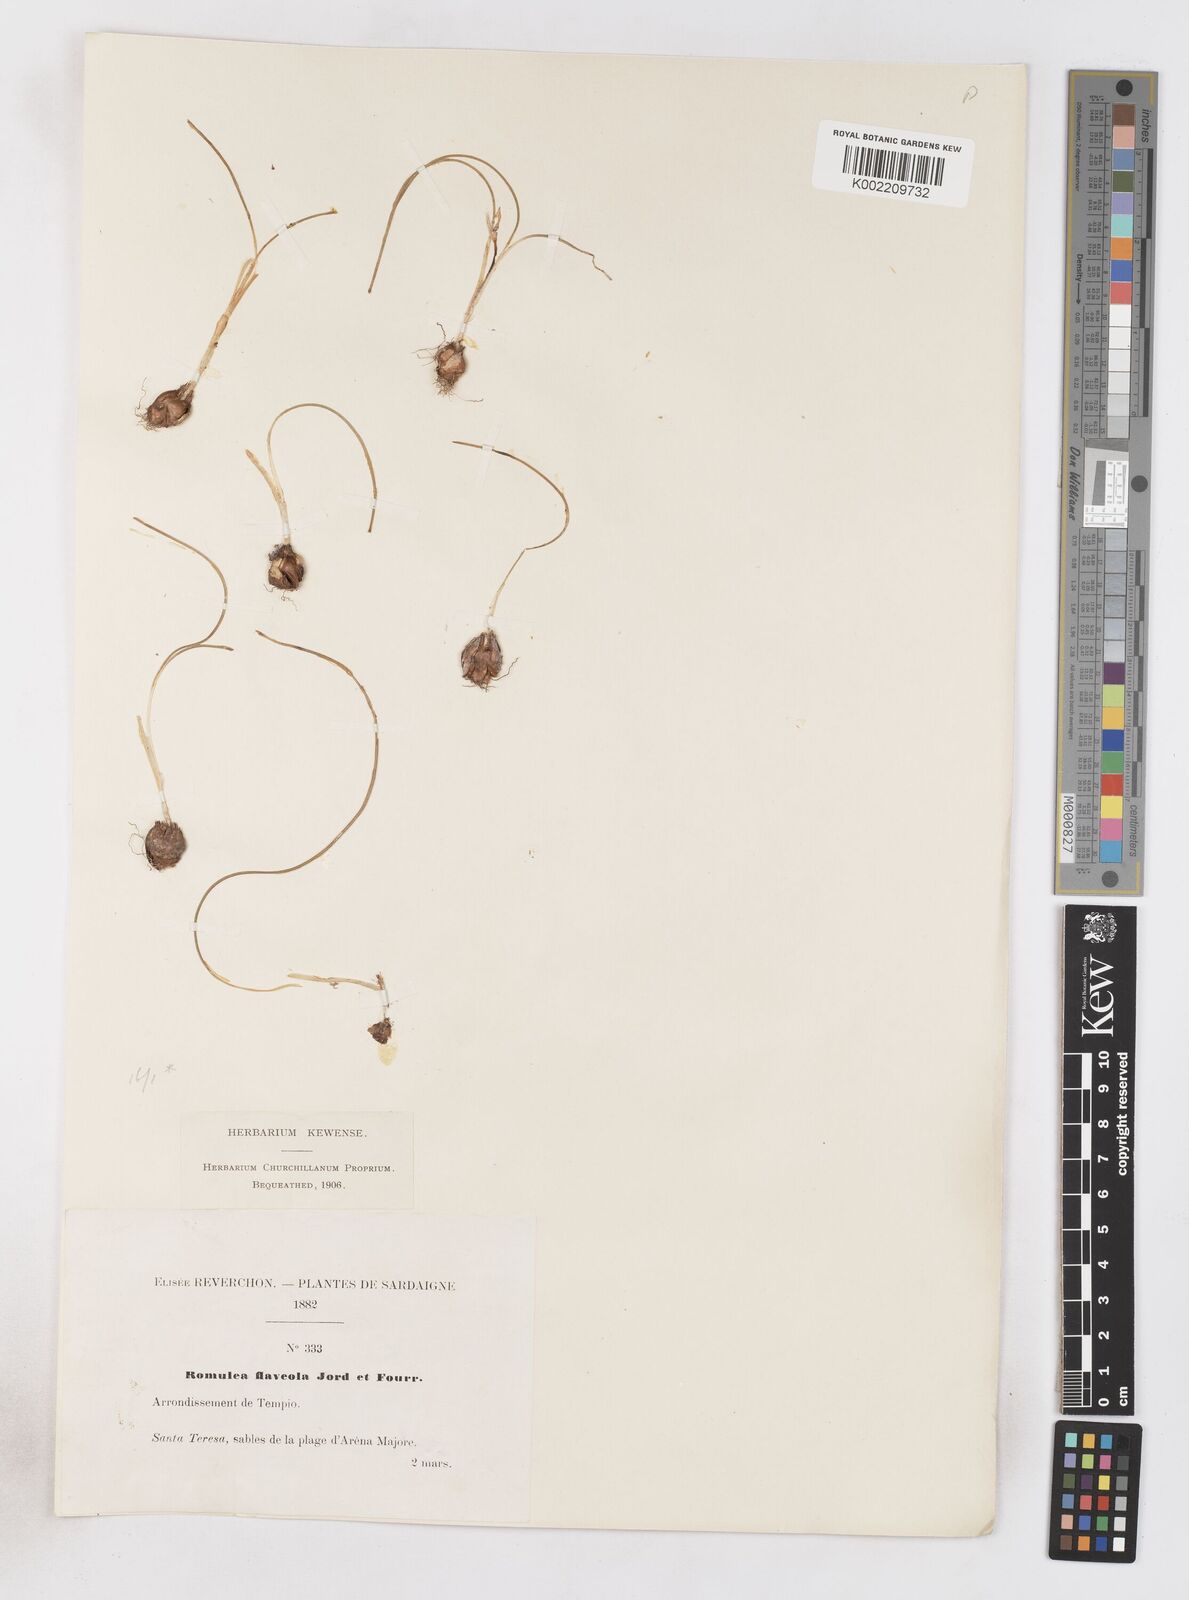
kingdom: Plantae
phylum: Tracheophyta
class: Liliopsida
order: Asparagales
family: Iridaceae
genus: Romulea
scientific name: Romulea columnae
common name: Sand-crocus
